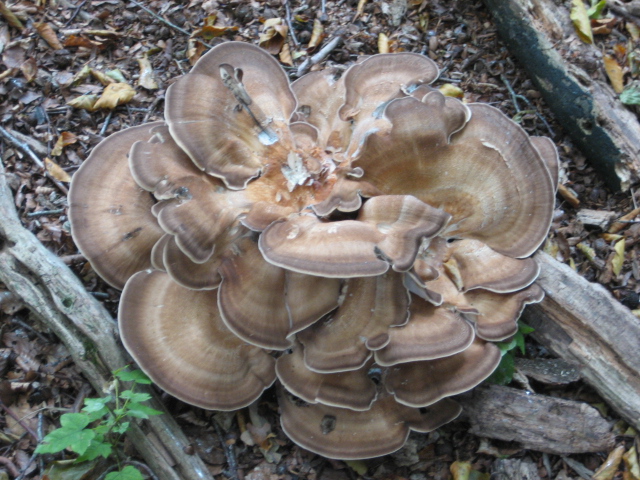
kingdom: Fungi
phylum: Basidiomycota
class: Agaricomycetes
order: Polyporales
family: Meripilaceae
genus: Meripilus
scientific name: Meripilus giganteus
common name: kæmpeporesvamp
